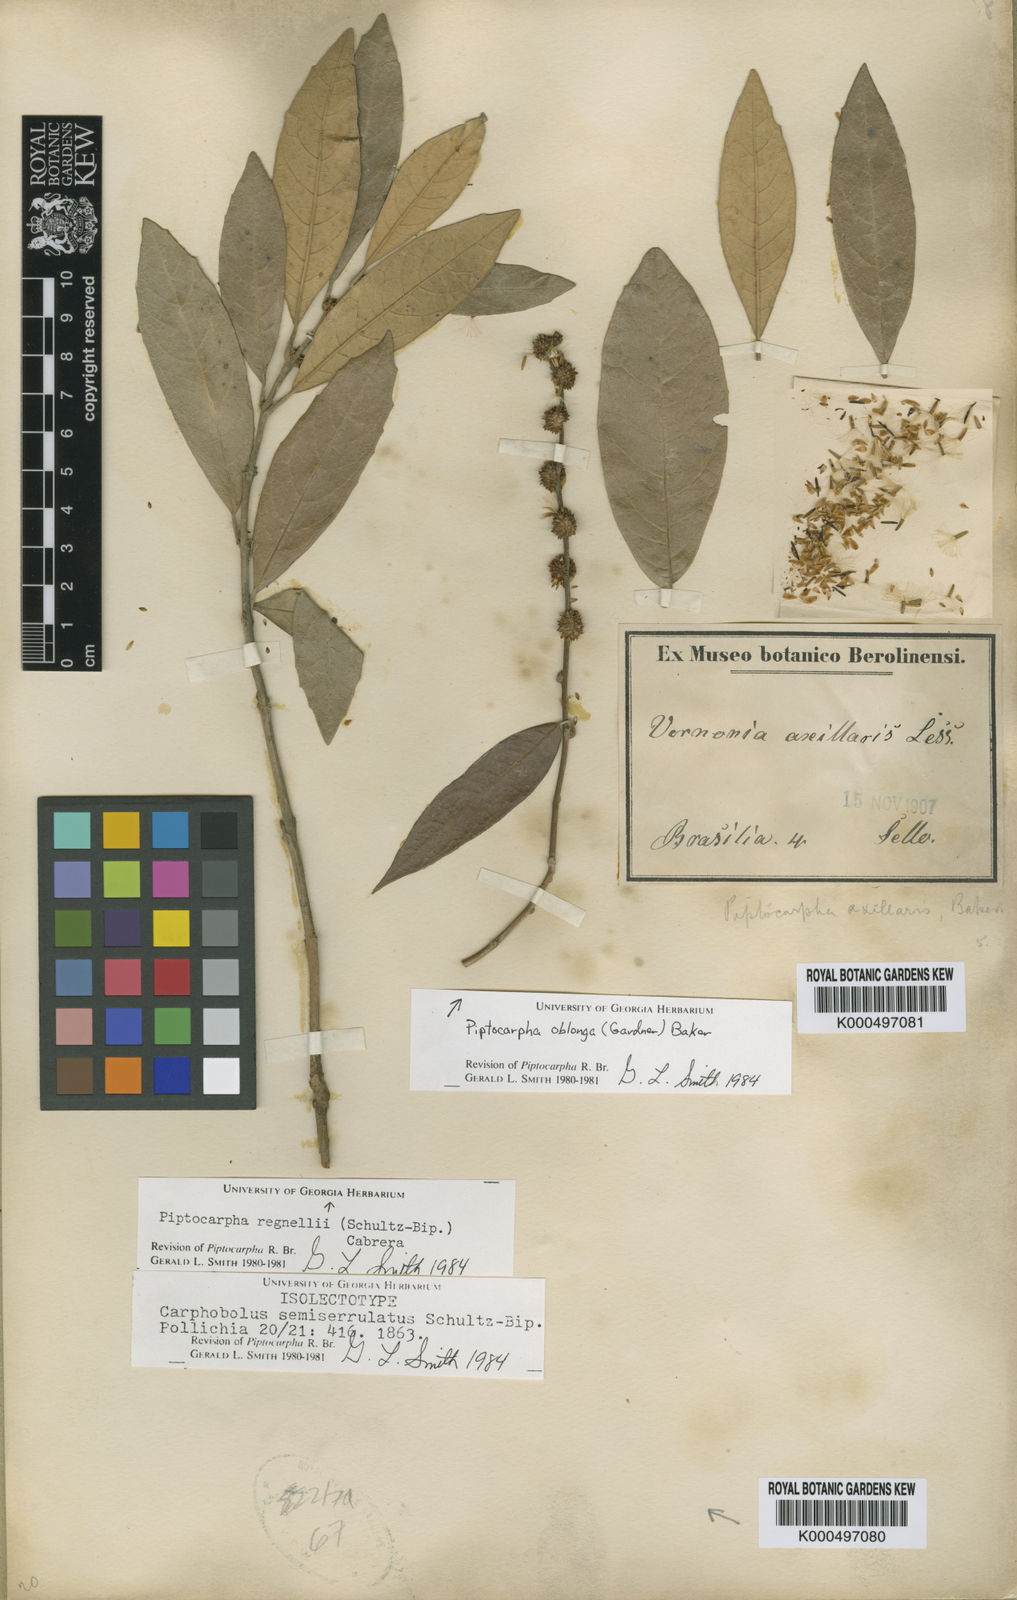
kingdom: Plantae
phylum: Tracheophyta
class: Magnoliopsida
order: Asterales
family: Asteraceae
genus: Piptocarpha
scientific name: Piptocarpha axillaris
